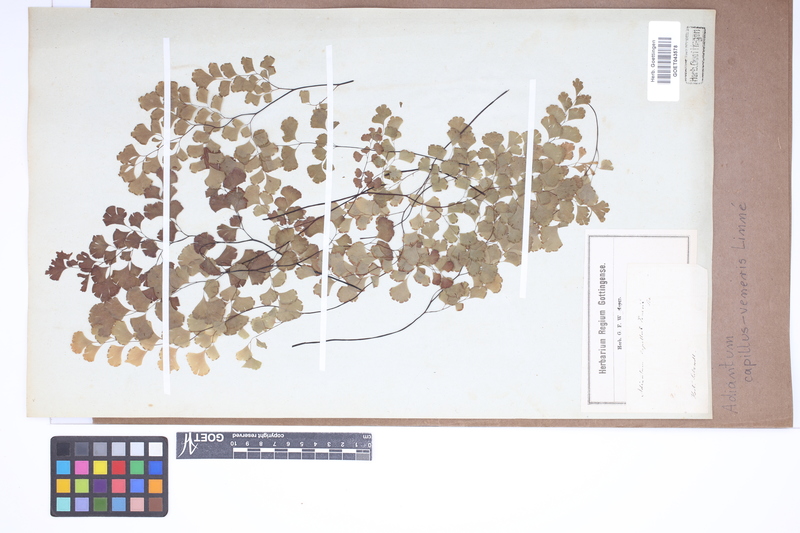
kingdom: Plantae
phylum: Tracheophyta
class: Polypodiopsida
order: Polypodiales
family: Pteridaceae
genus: Adiantum
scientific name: Adiantum capillus-veneris
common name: Maidenhair fern
